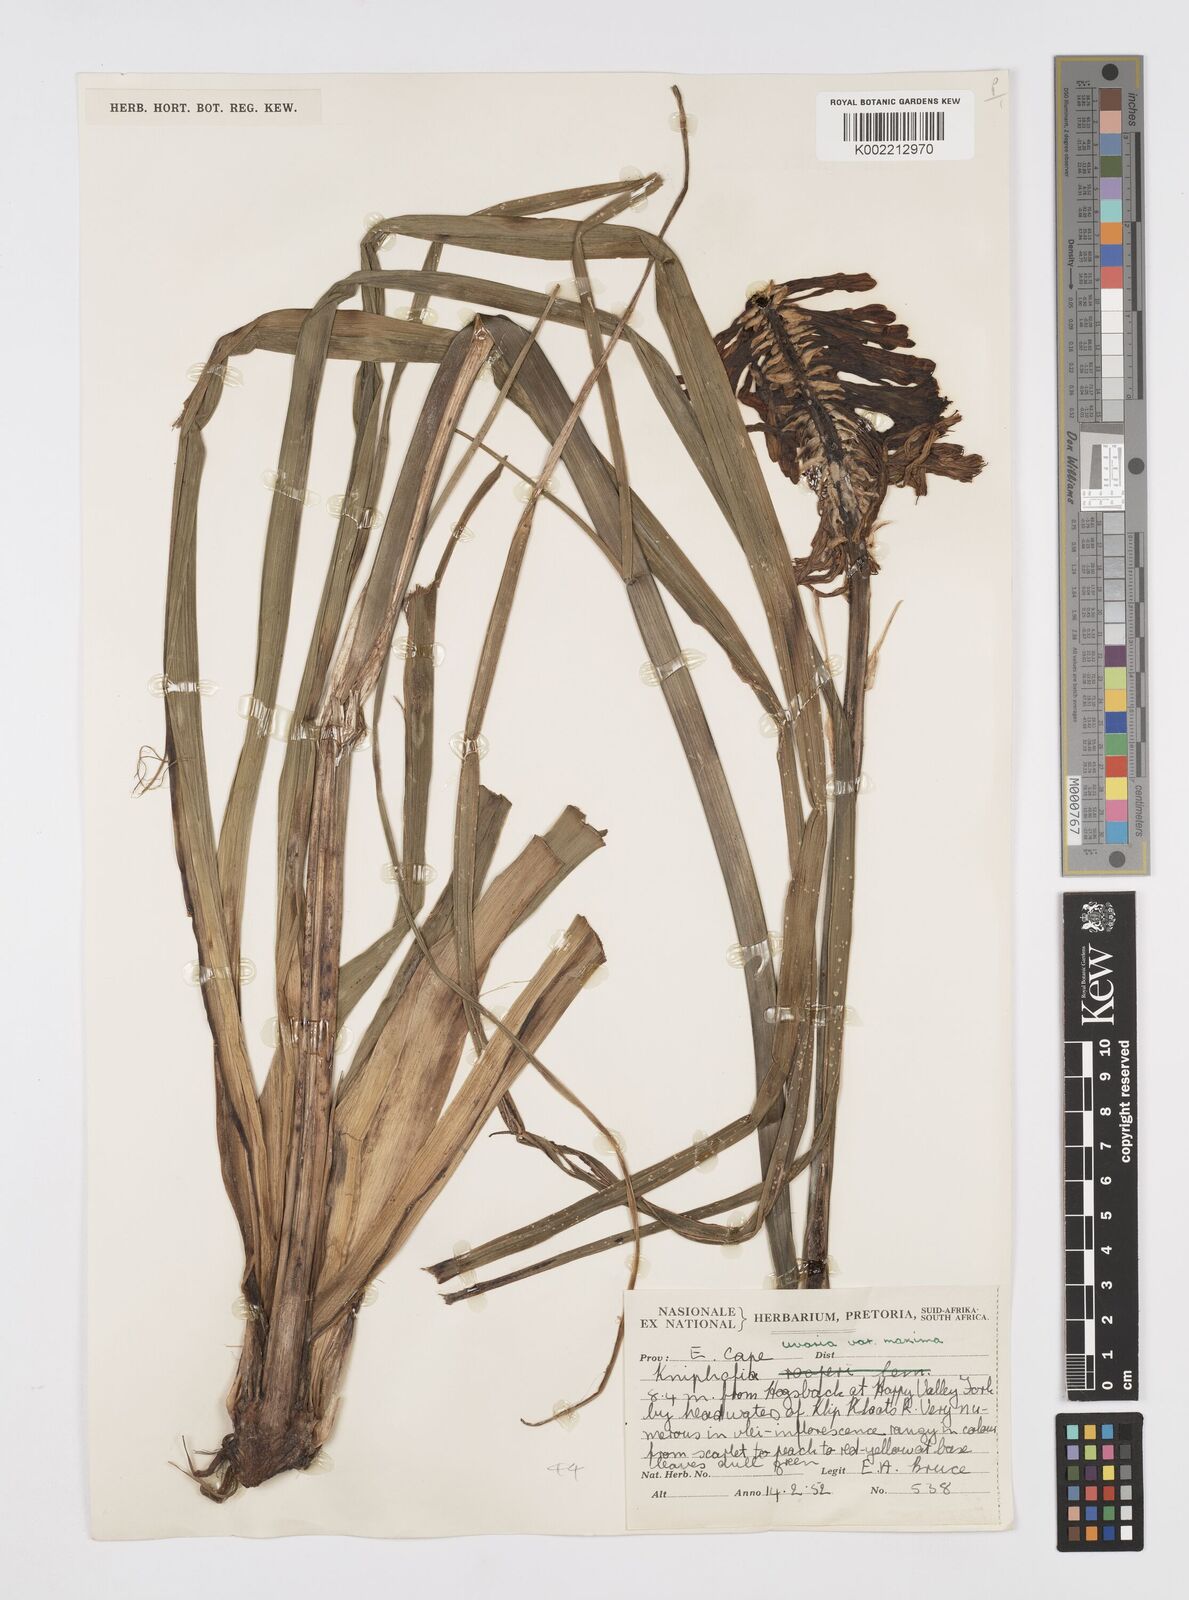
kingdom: Plantae
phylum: Tracheophyta
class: Liliopsida
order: Asparagales
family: Asphodelaceae
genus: Kniphofia
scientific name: Kniphofia linearifolia
